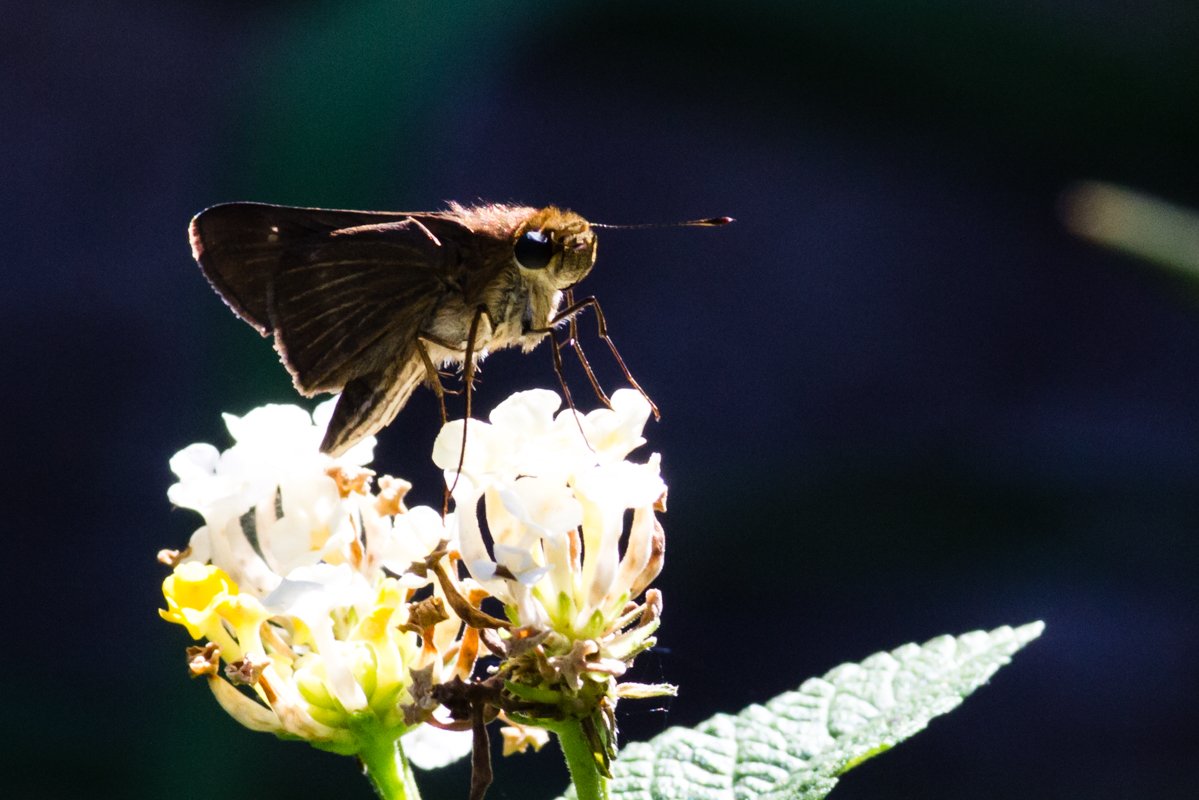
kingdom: Animalia
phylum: Arthropoda
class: Insecta
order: Lepidoptera
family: Hesperiidae
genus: Panoquina
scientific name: Panoquina ocola
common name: Ocola Skipper
